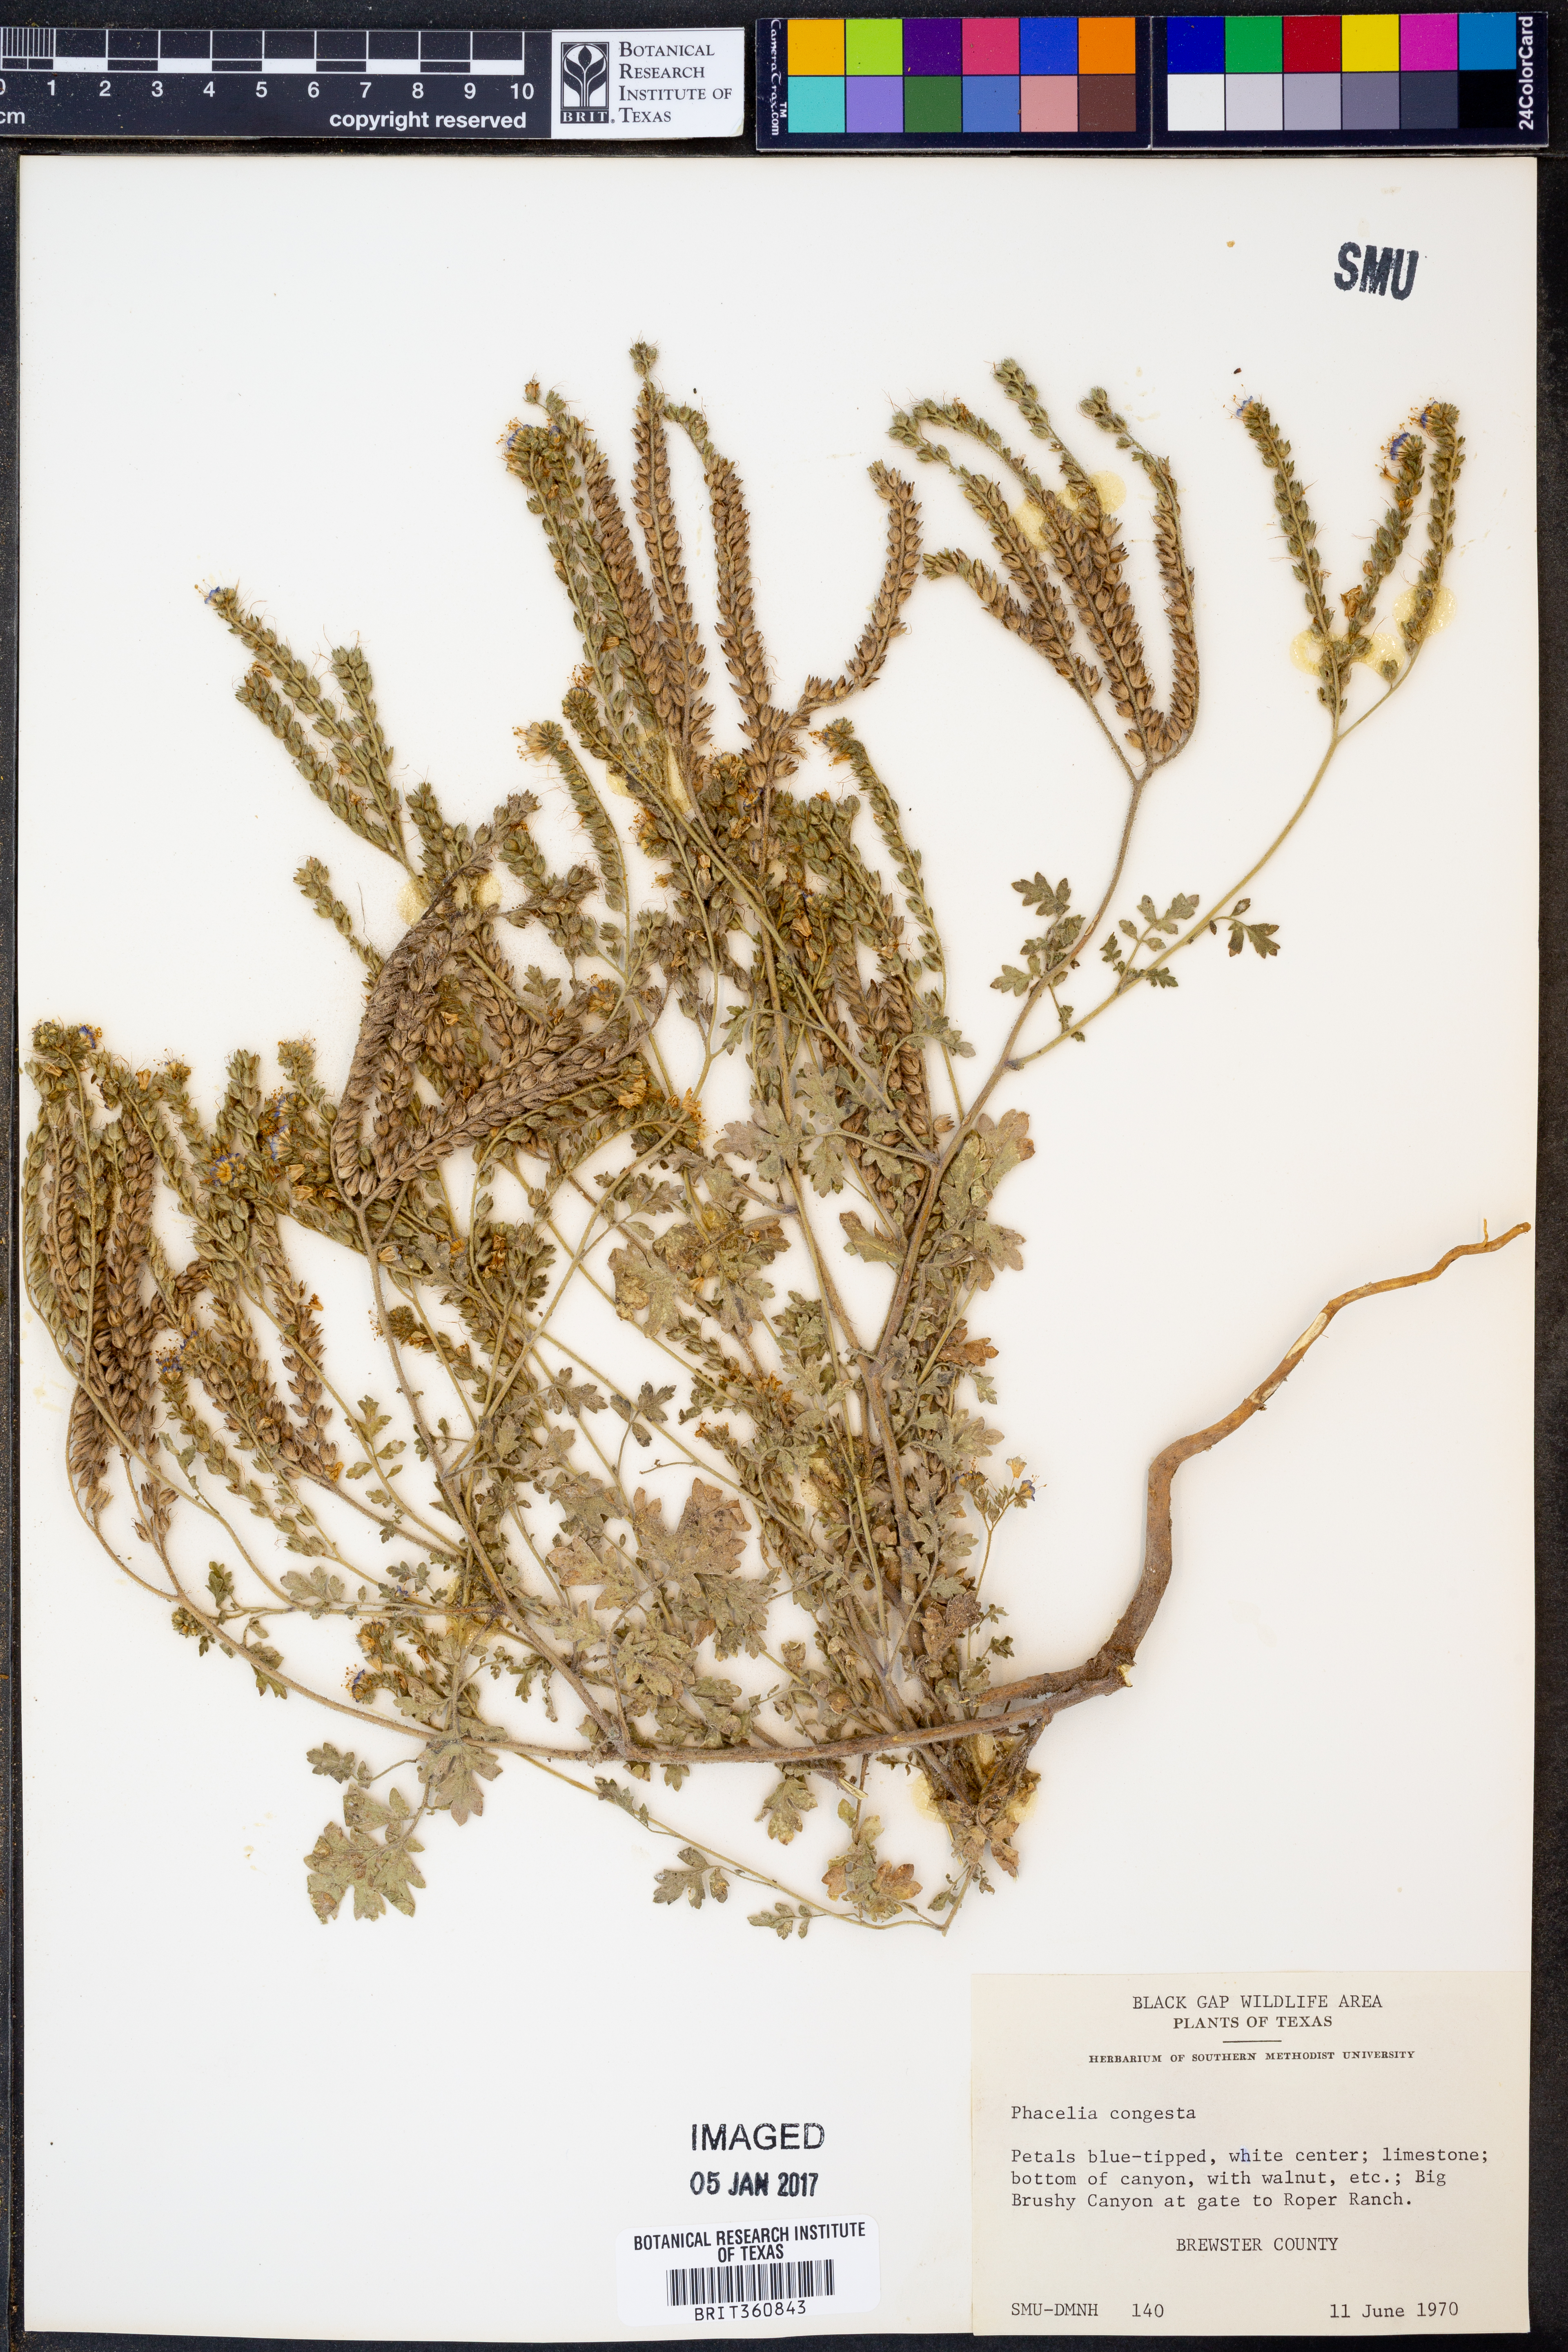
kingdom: Plantae
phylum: Tracheophyta
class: Magnoliopsida
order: Boraginales
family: Hydrophyllaceae
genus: Phacelia
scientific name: Phacelia congesta
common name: Blue curls
